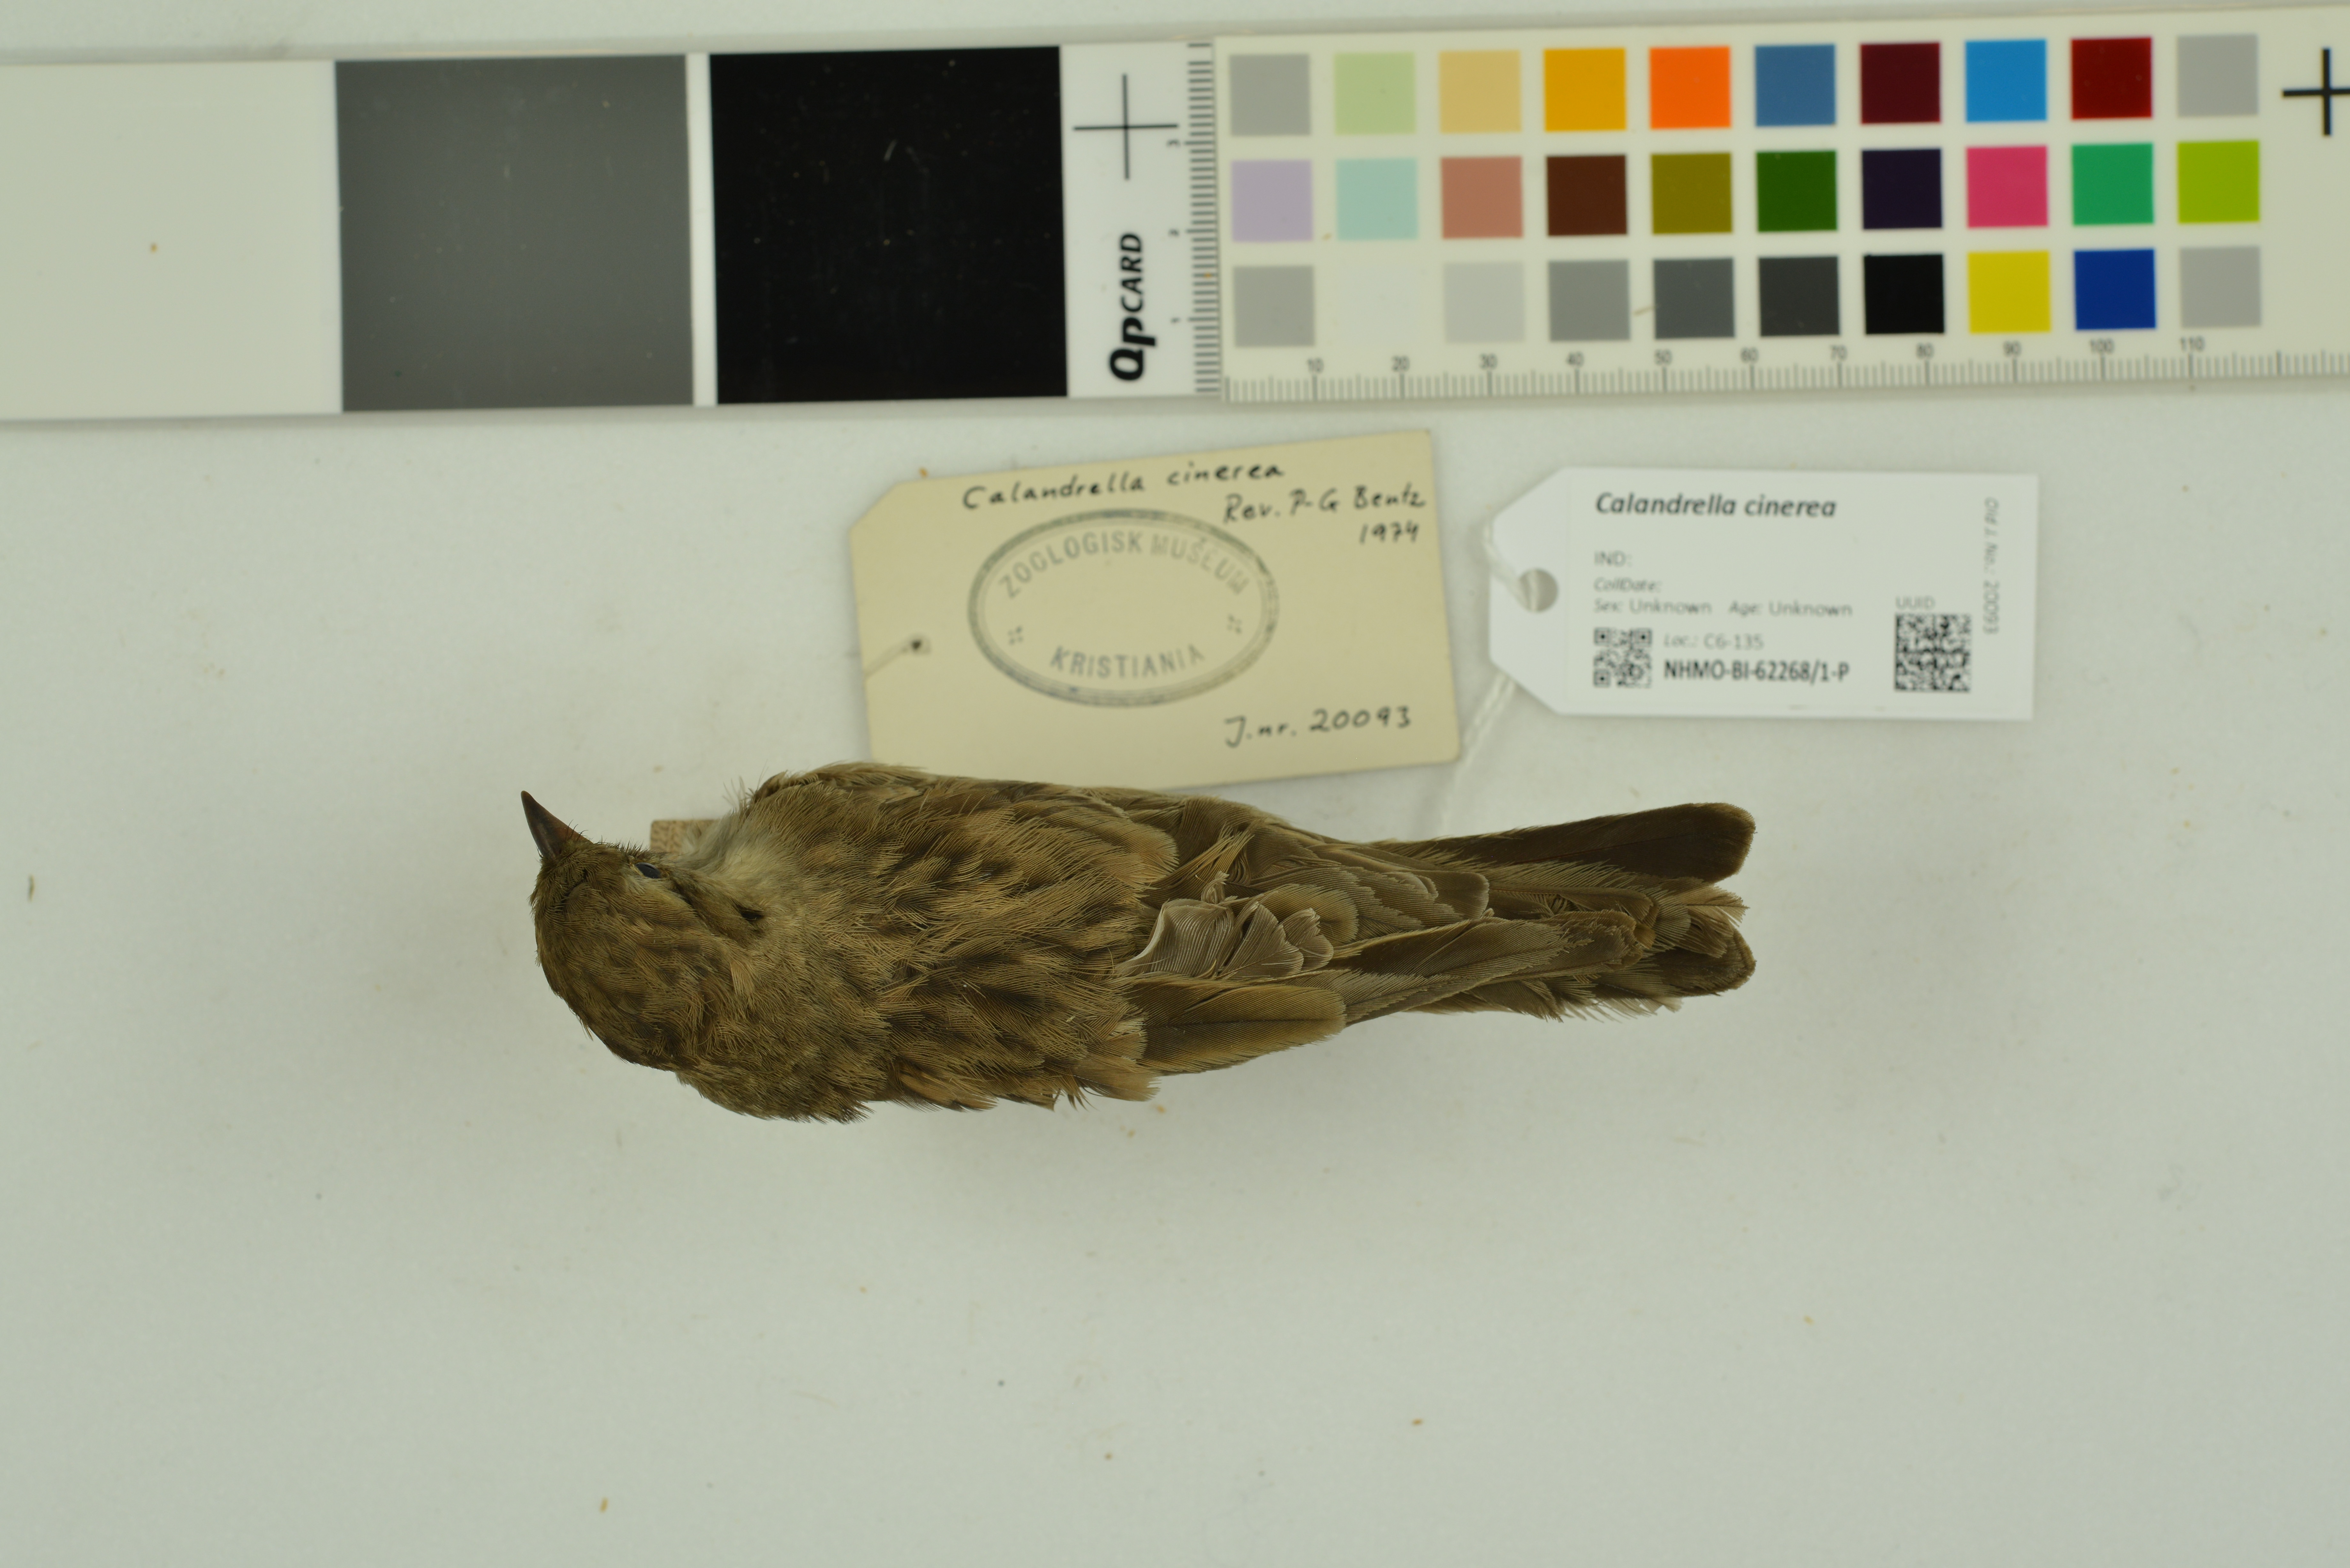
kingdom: Animalia
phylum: Chordata
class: Aves
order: Passeriformes
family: Alaudidae
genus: Calandrella
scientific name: Calandrella cinerea
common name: Red-capped lark
